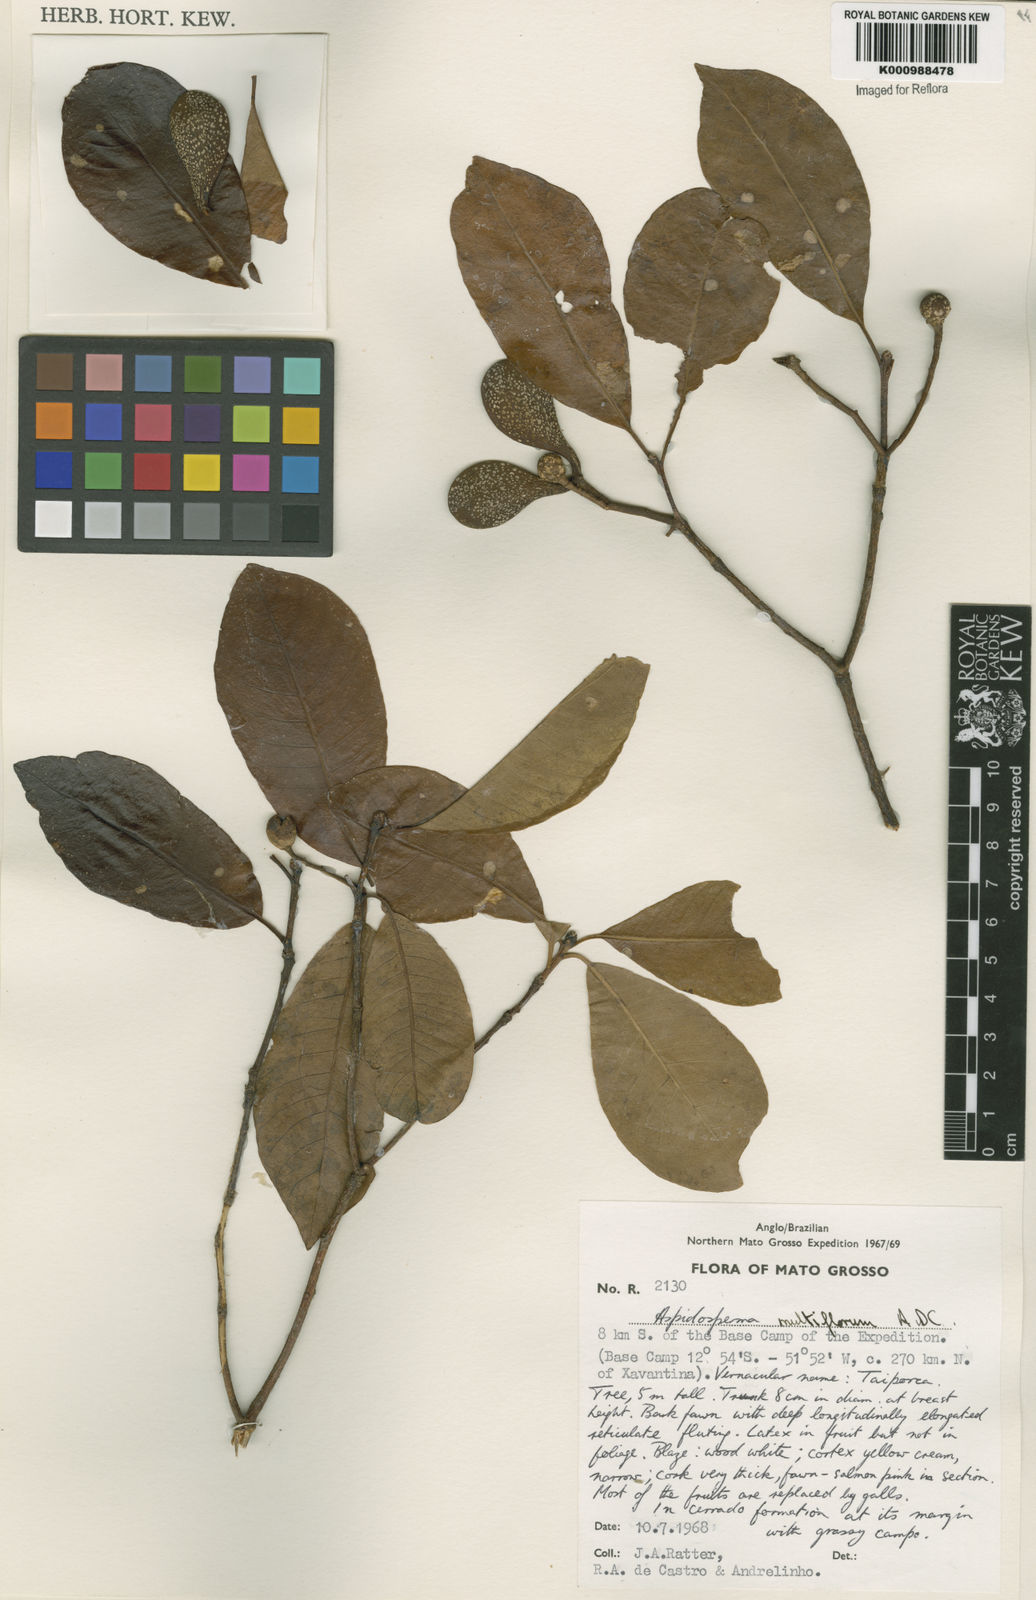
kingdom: Plantae
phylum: Tracheophyta
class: Magnoliopsida
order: Gentianales
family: Apocynaceae
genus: Aspidosperma
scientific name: Aspidosperma multiflorum
